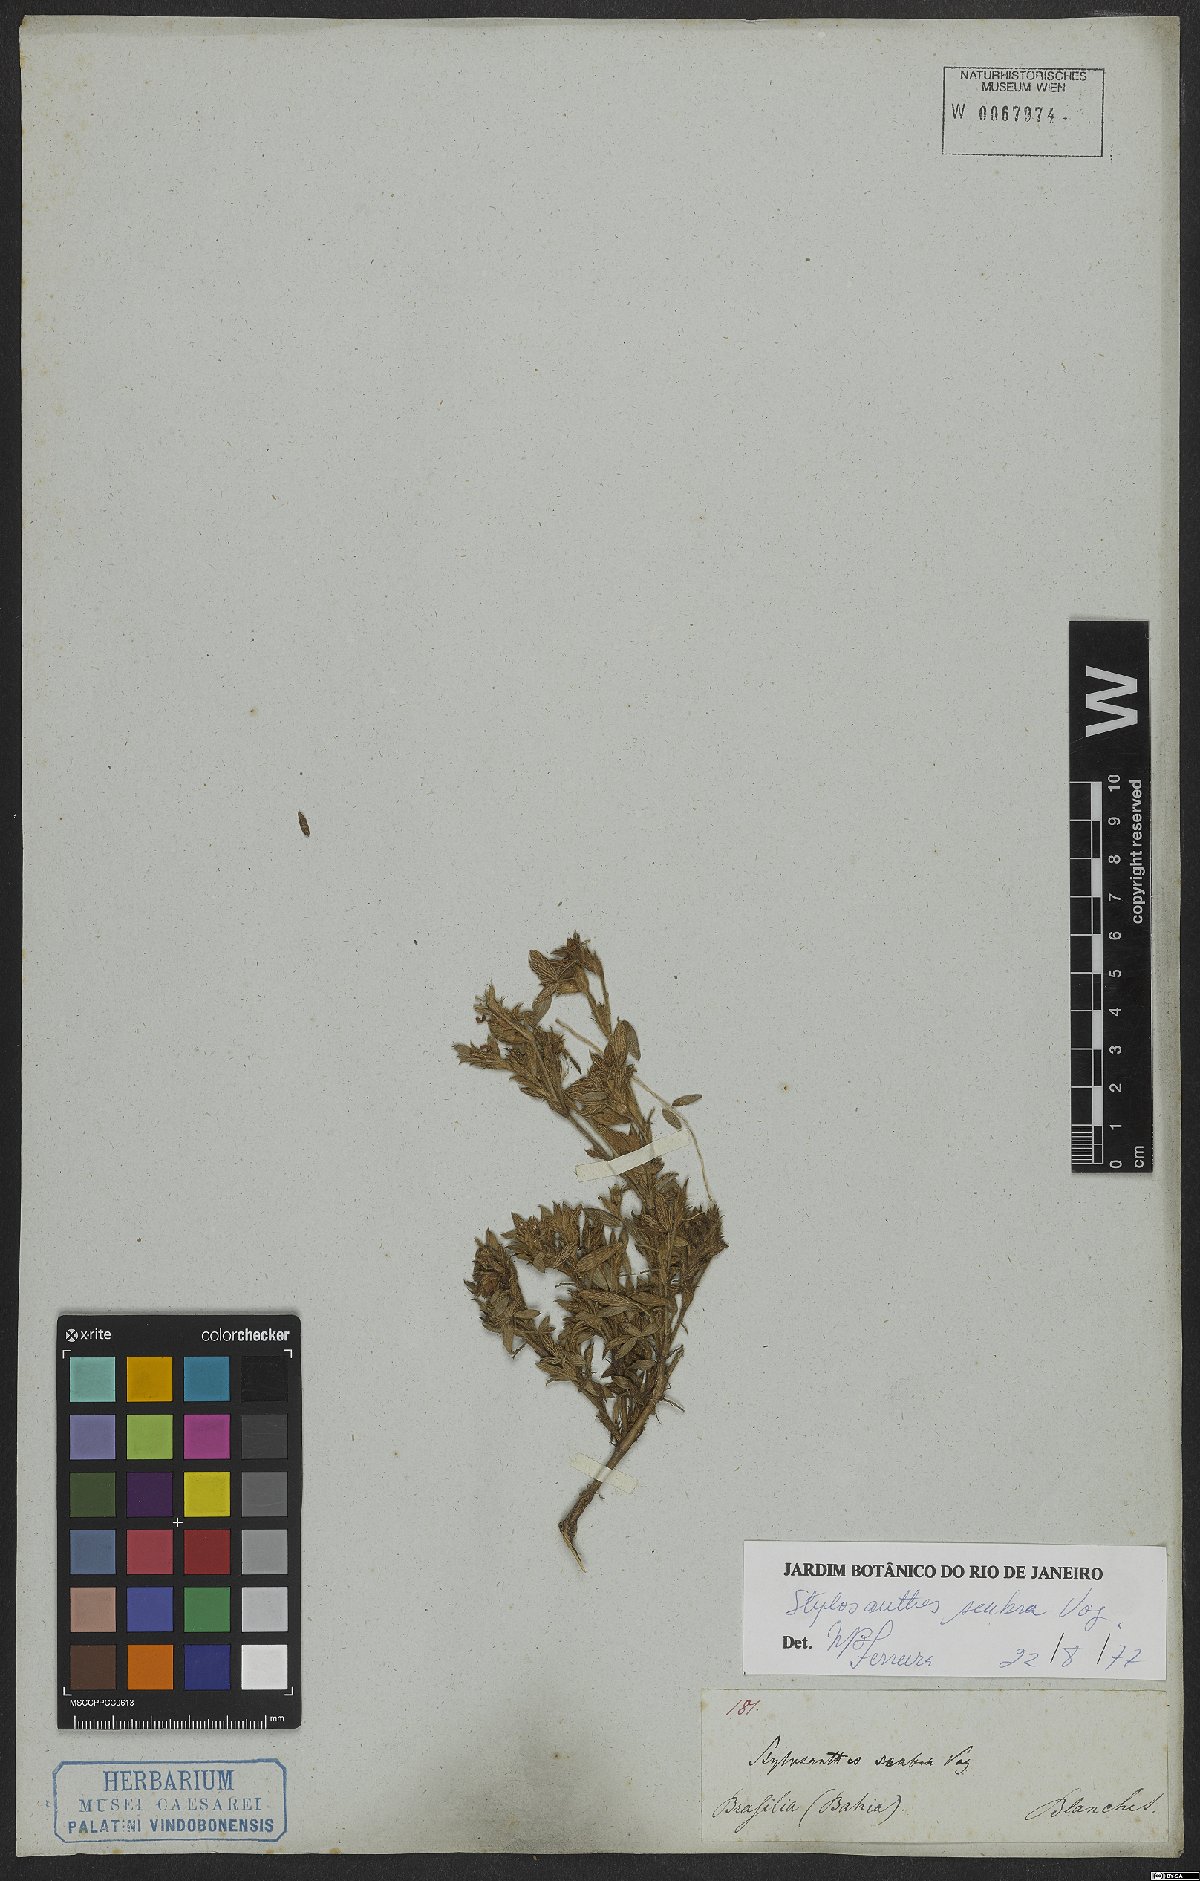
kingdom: Plantae
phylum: Tracheophyta
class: Magnoliopsida
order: Fabales
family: Fabaceae
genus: Stylosanthes
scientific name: Stylosanthes scabra
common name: Pencilflower
